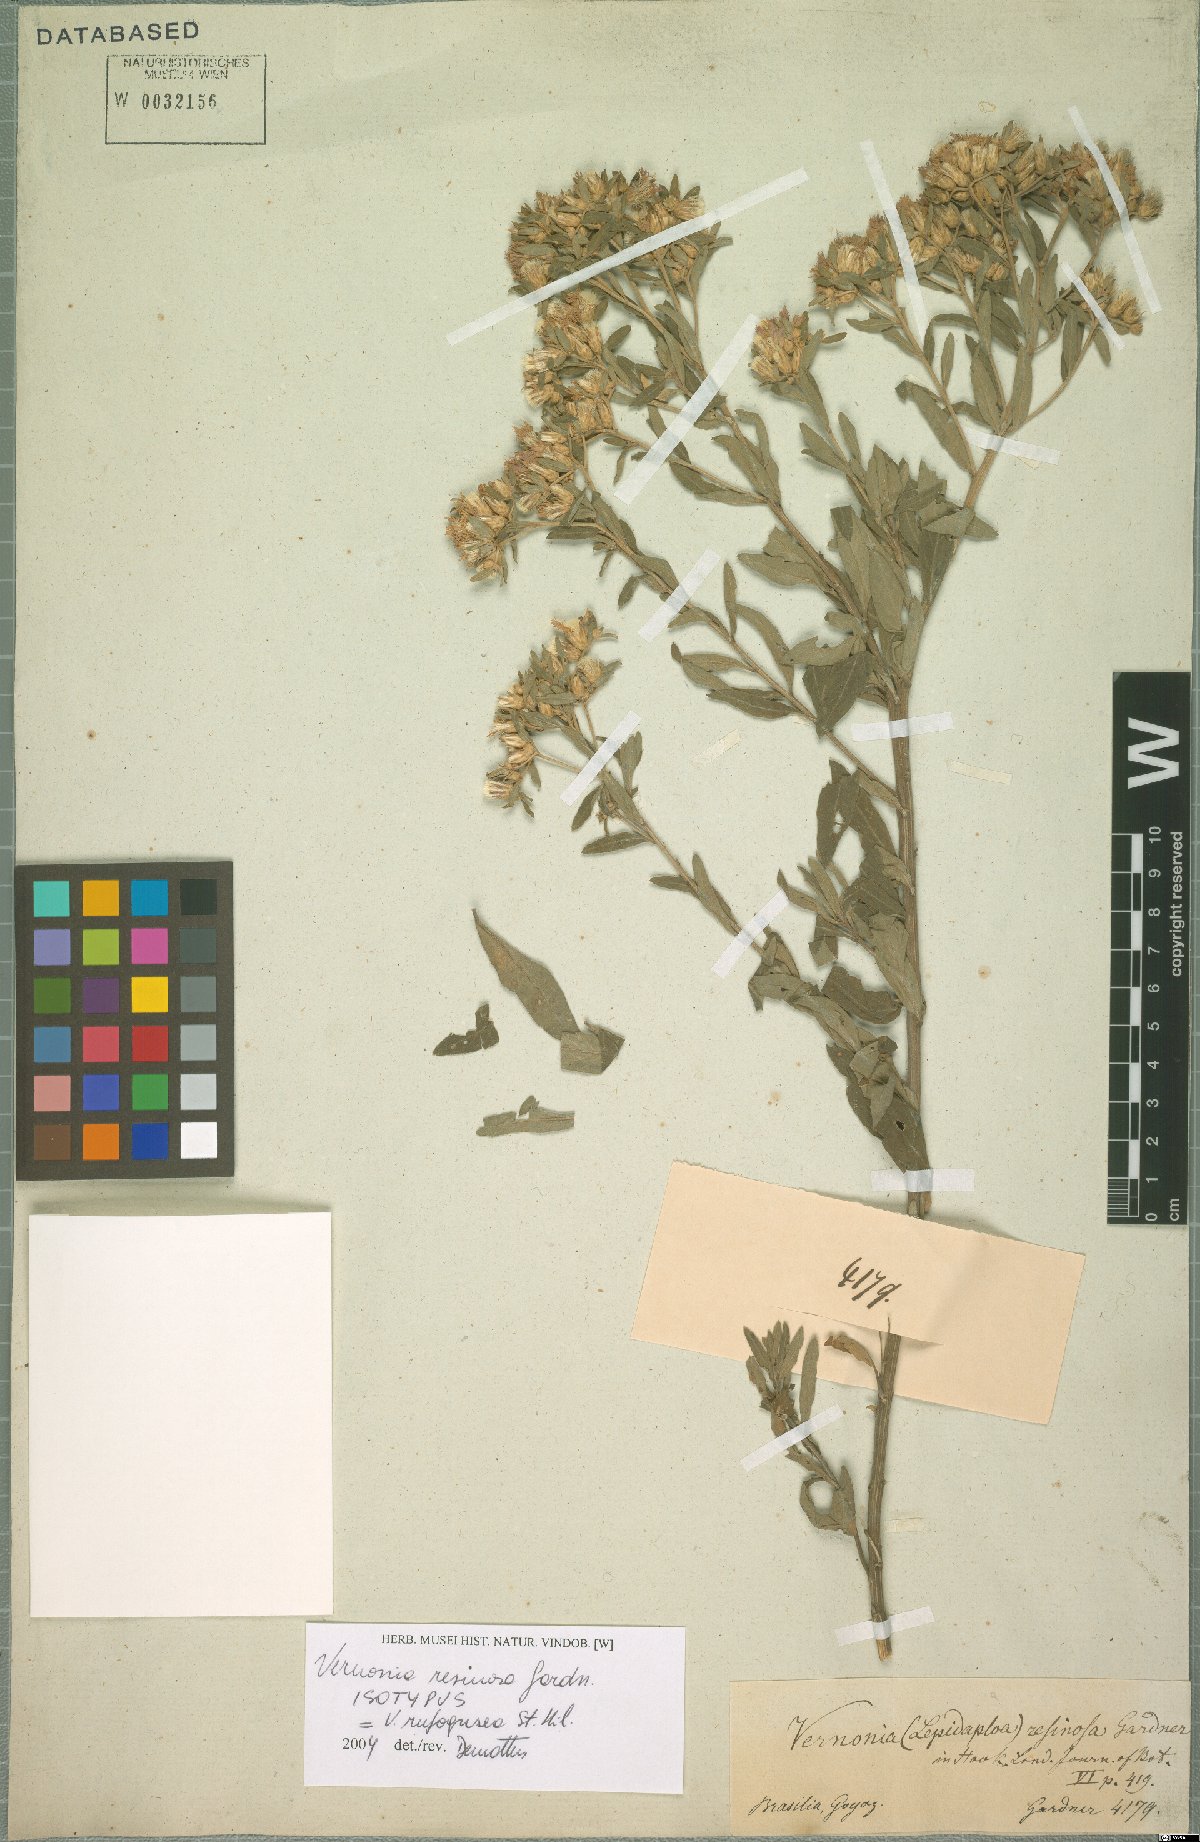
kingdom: Plantae
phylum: Tracheophyta
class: Magnoliopsida
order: Asterales
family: Asteraceae
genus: Lepidaploa
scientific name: Lepidaploa rufogrisea
